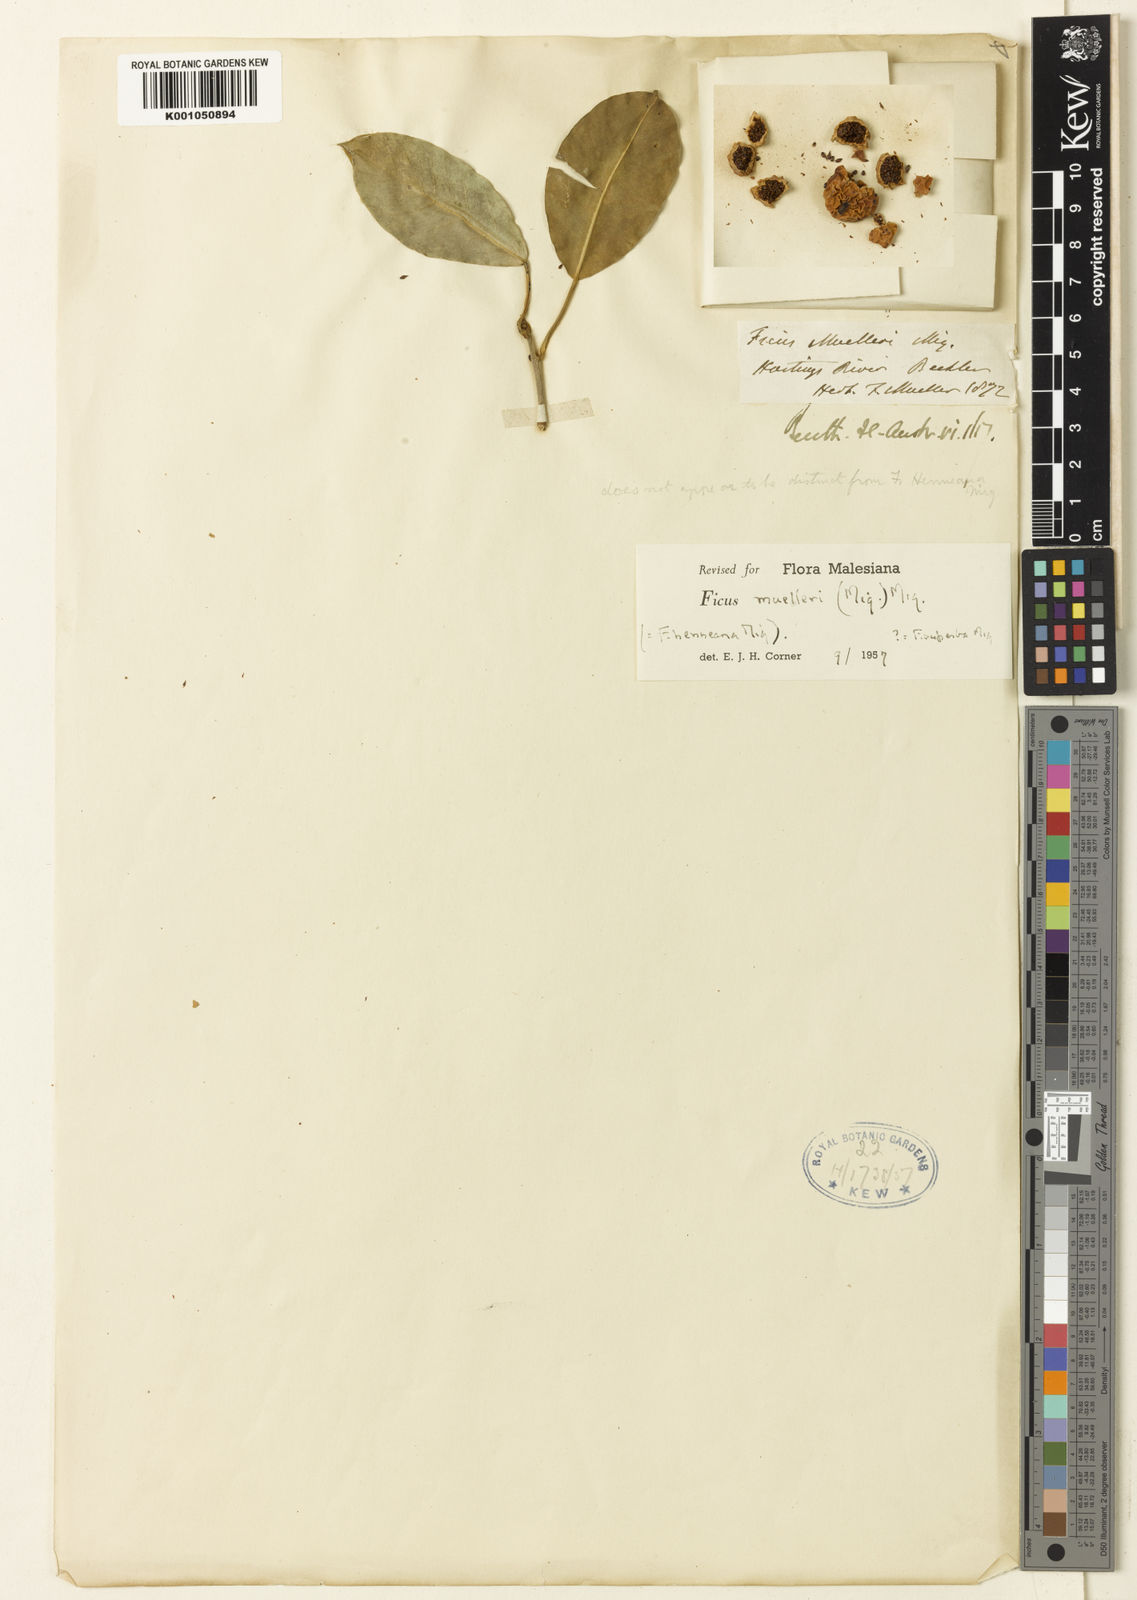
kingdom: Plantae
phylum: Tracheophyta
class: Magnoliopsida
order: Rosales
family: Moraceae
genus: Ficus
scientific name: Ficus tinctoria
